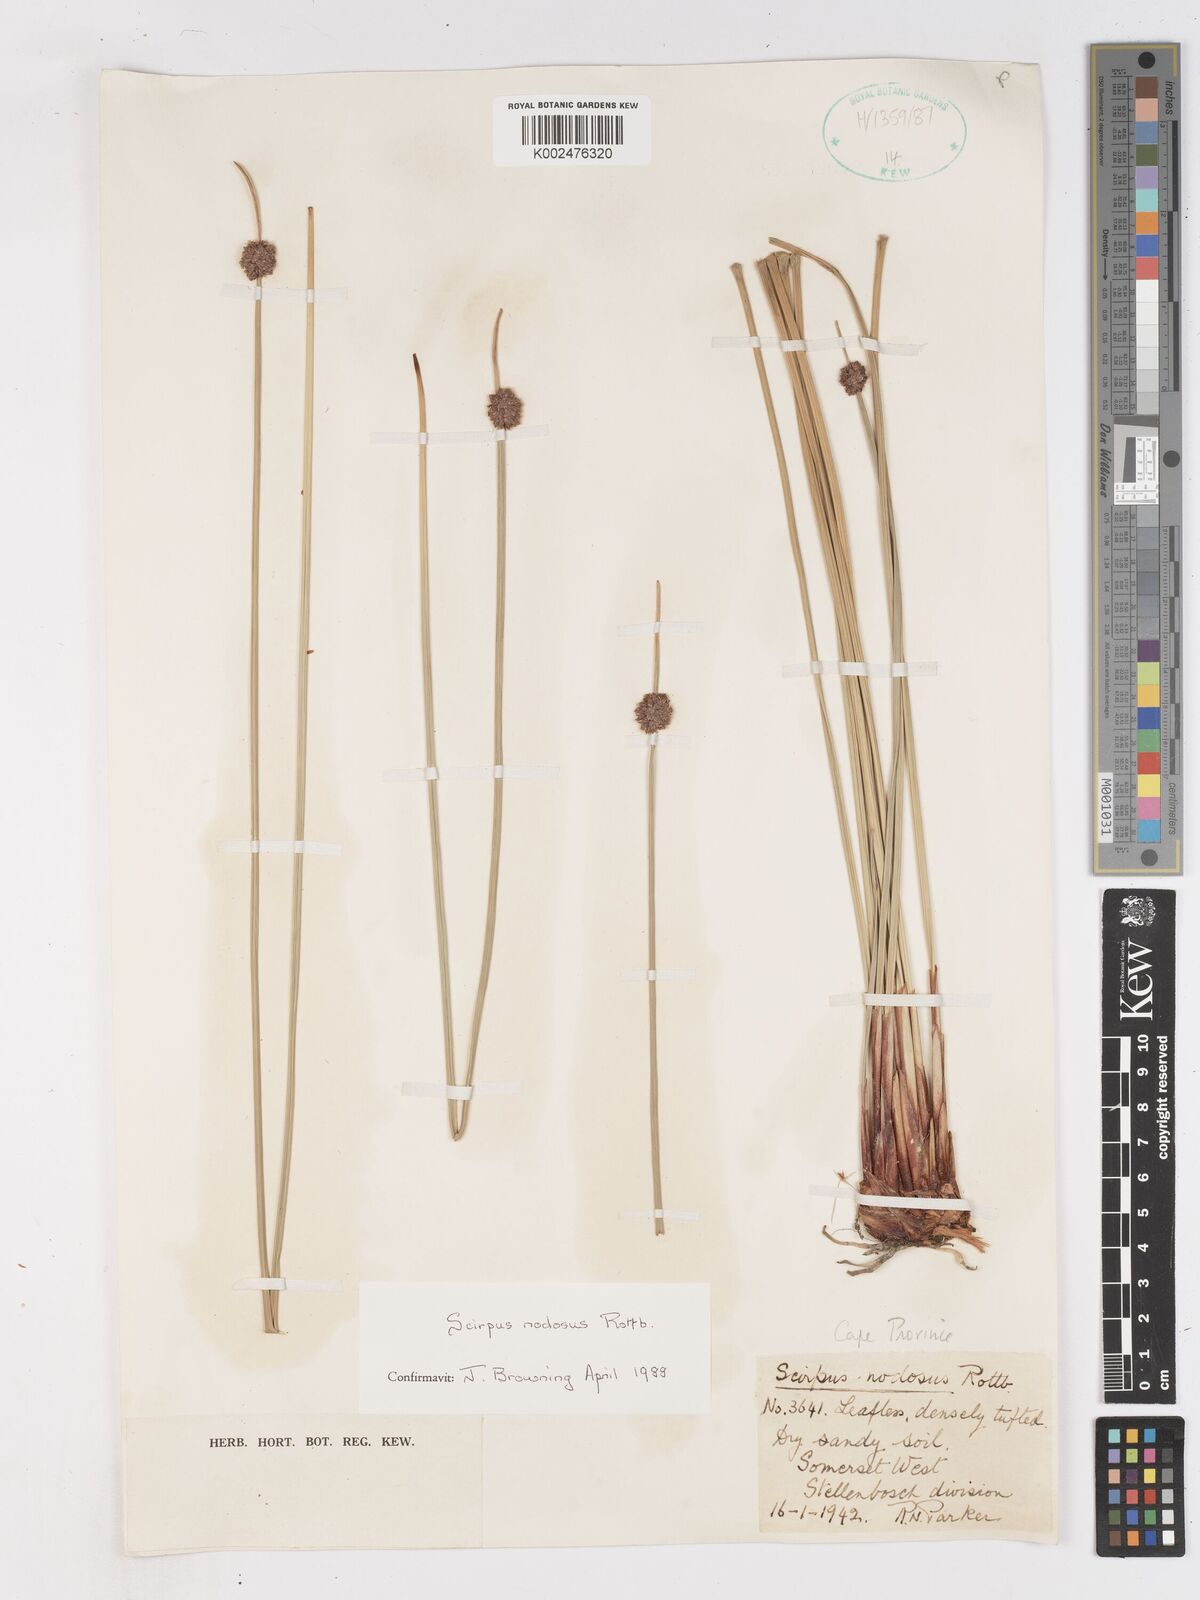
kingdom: Plantae
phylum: Tracheophyta
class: Liliopsida
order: Poales
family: Cyperaceae
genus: Ficinia
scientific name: Ficinia nodosa
